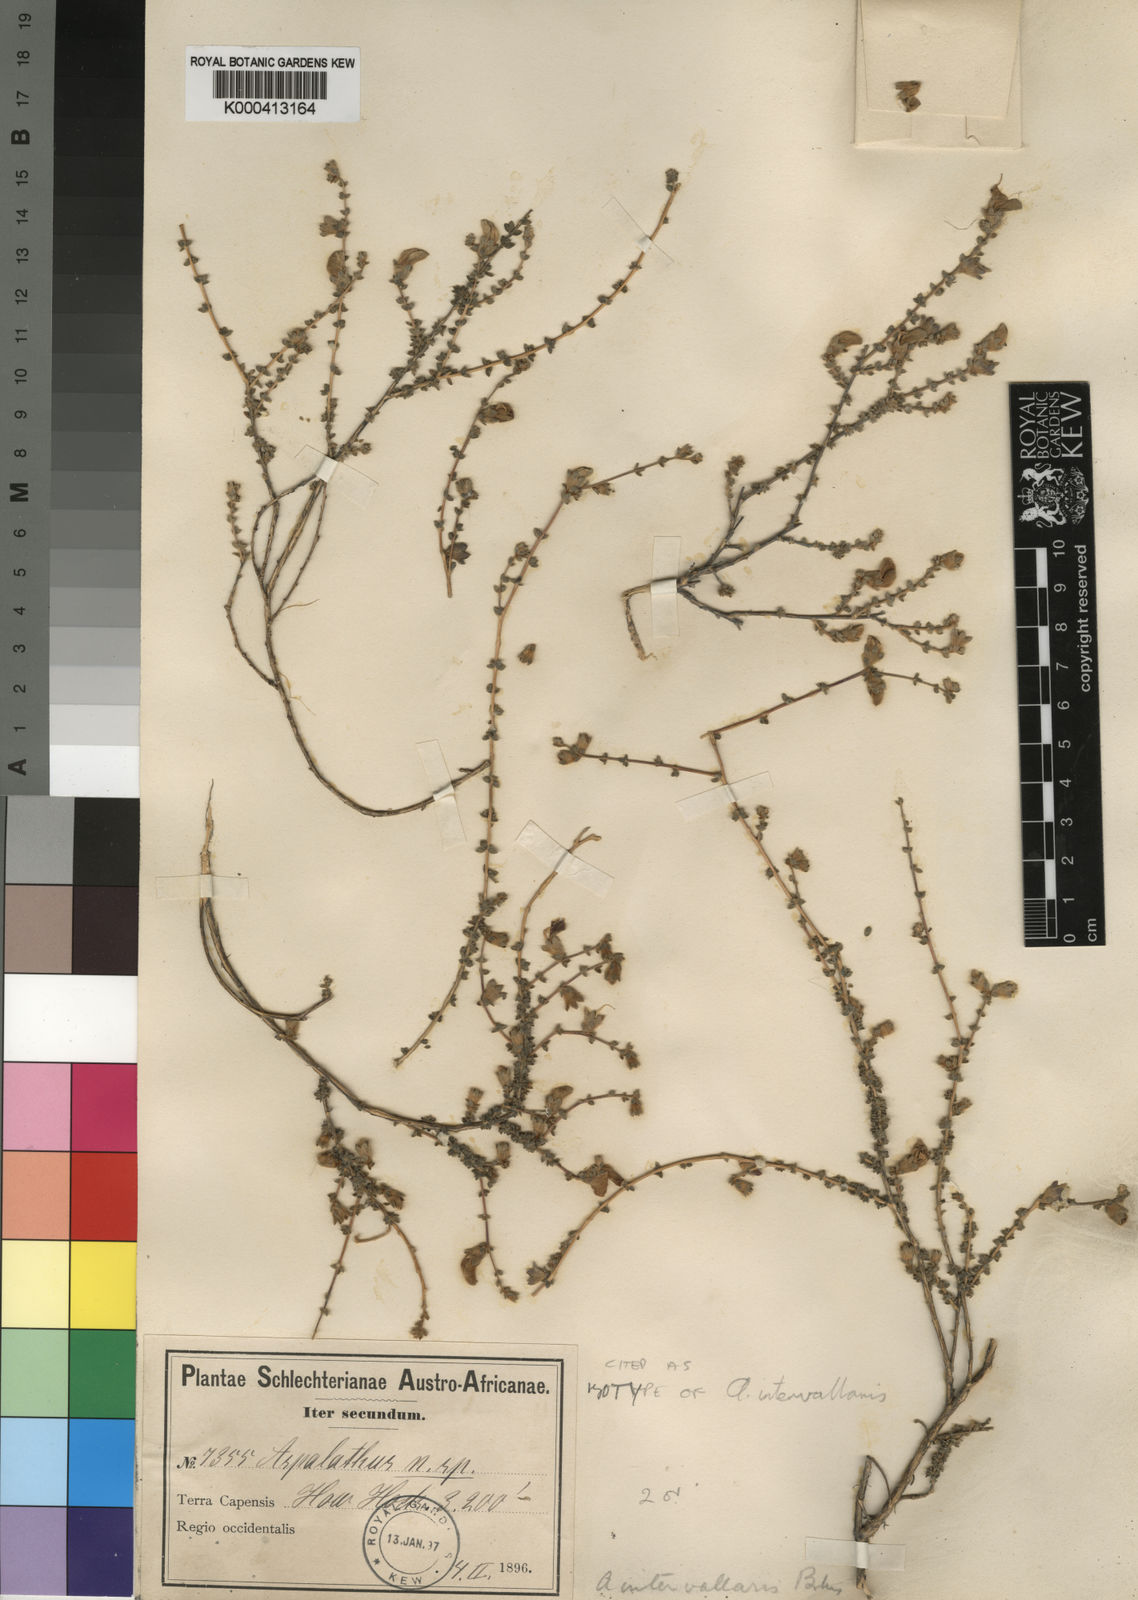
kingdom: Plantae
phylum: Tracheophyta
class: Magnoliopsida
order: Fabales
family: Fabaceae
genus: Aspalathus
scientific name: Aspalathus intervallaris
